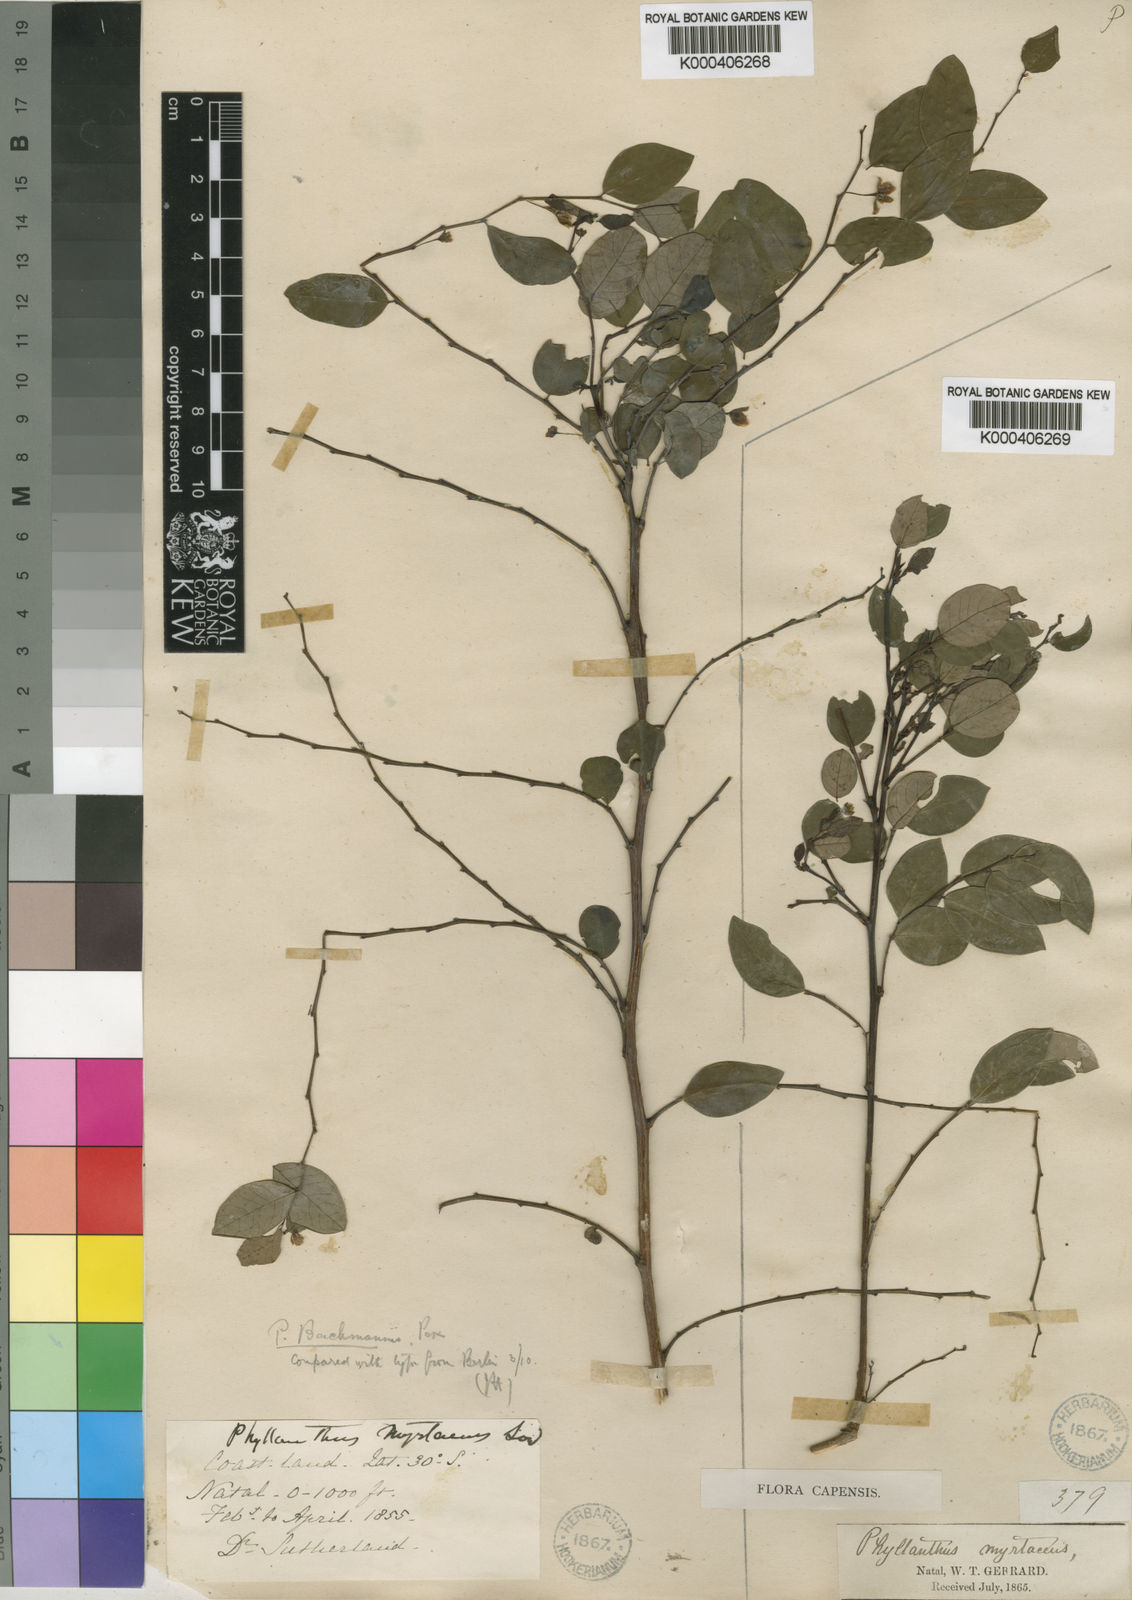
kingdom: Plantae
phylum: Tracheophyta
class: Magnoliopsida
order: Malpighiales
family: Phyllanthaceae
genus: Phyllanthus
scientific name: Phyllanthus myrtaceus
